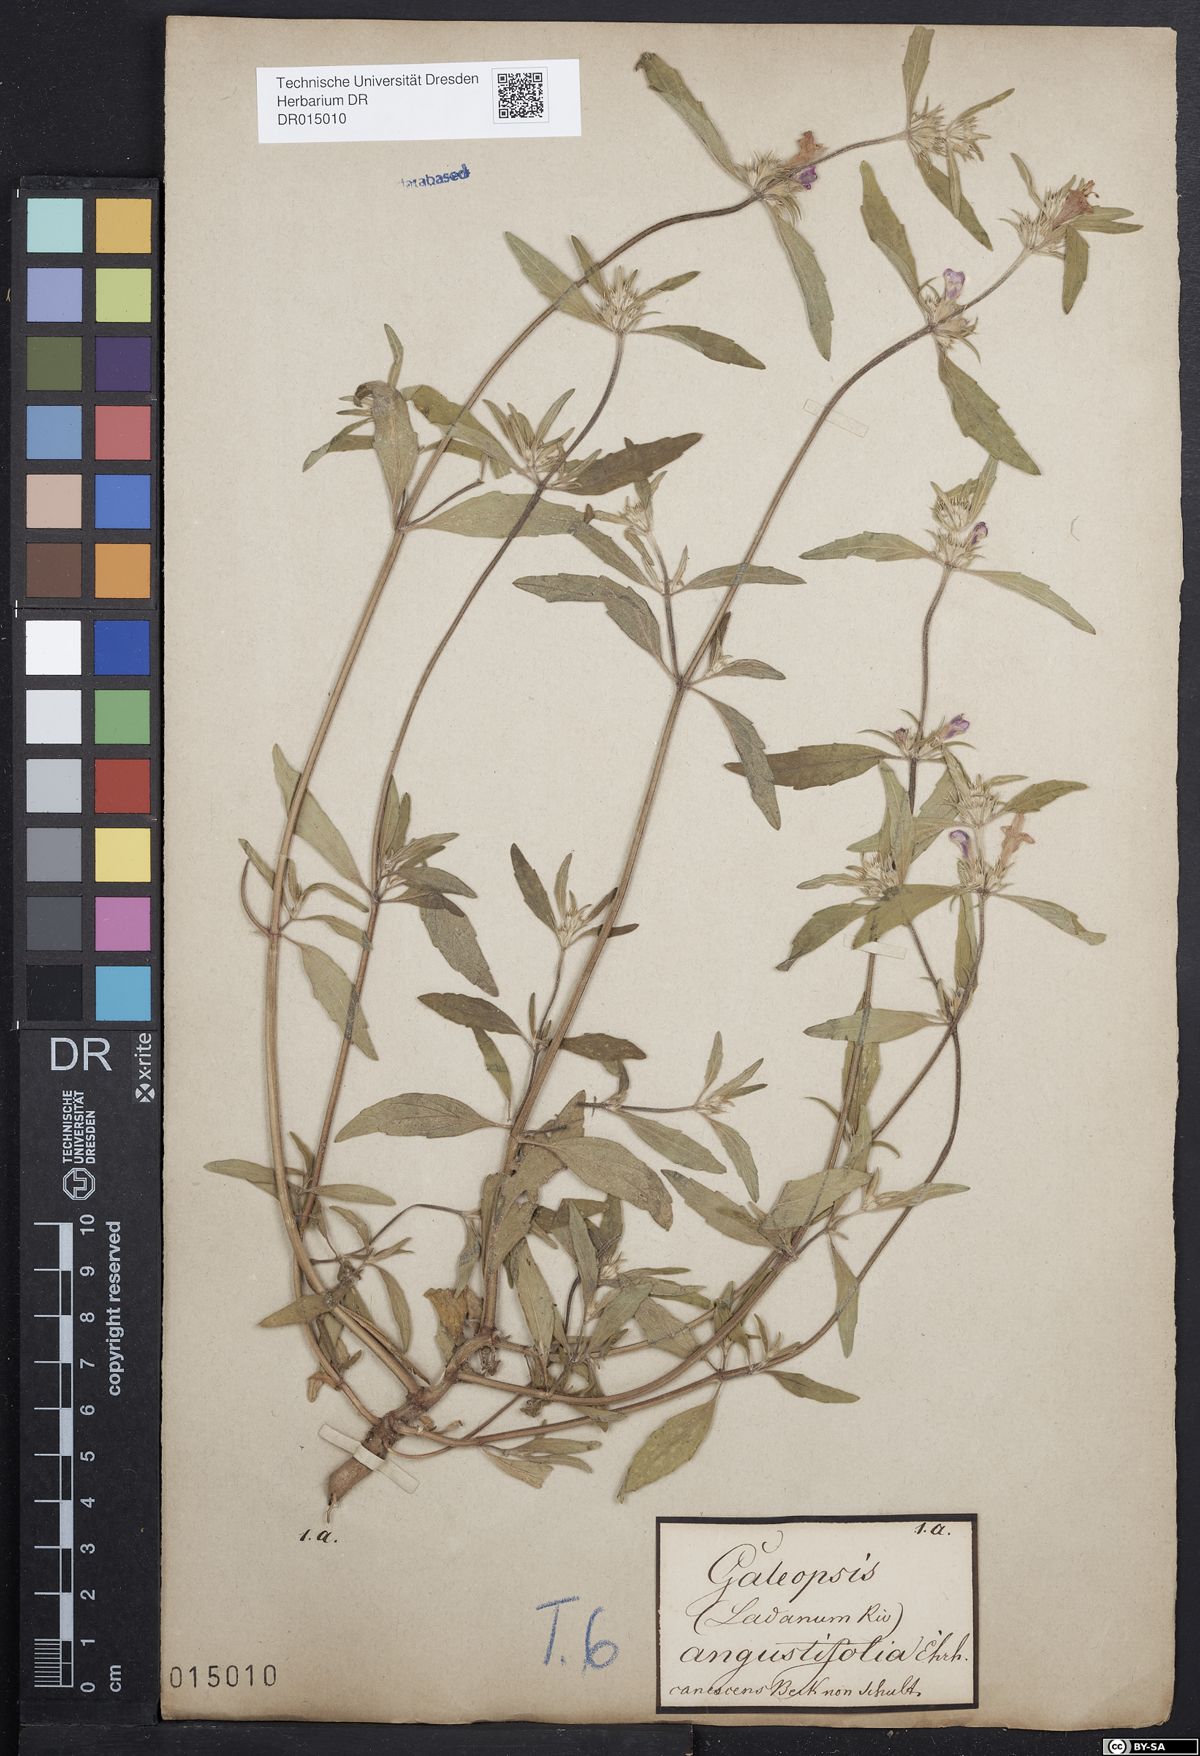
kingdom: Plantae
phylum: Tracheophyta
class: Magnoliopsida
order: Lamiales
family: Lamiaceae
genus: Galeopsis
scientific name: Galeopsis angustifolia
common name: Red hemp-nettle
